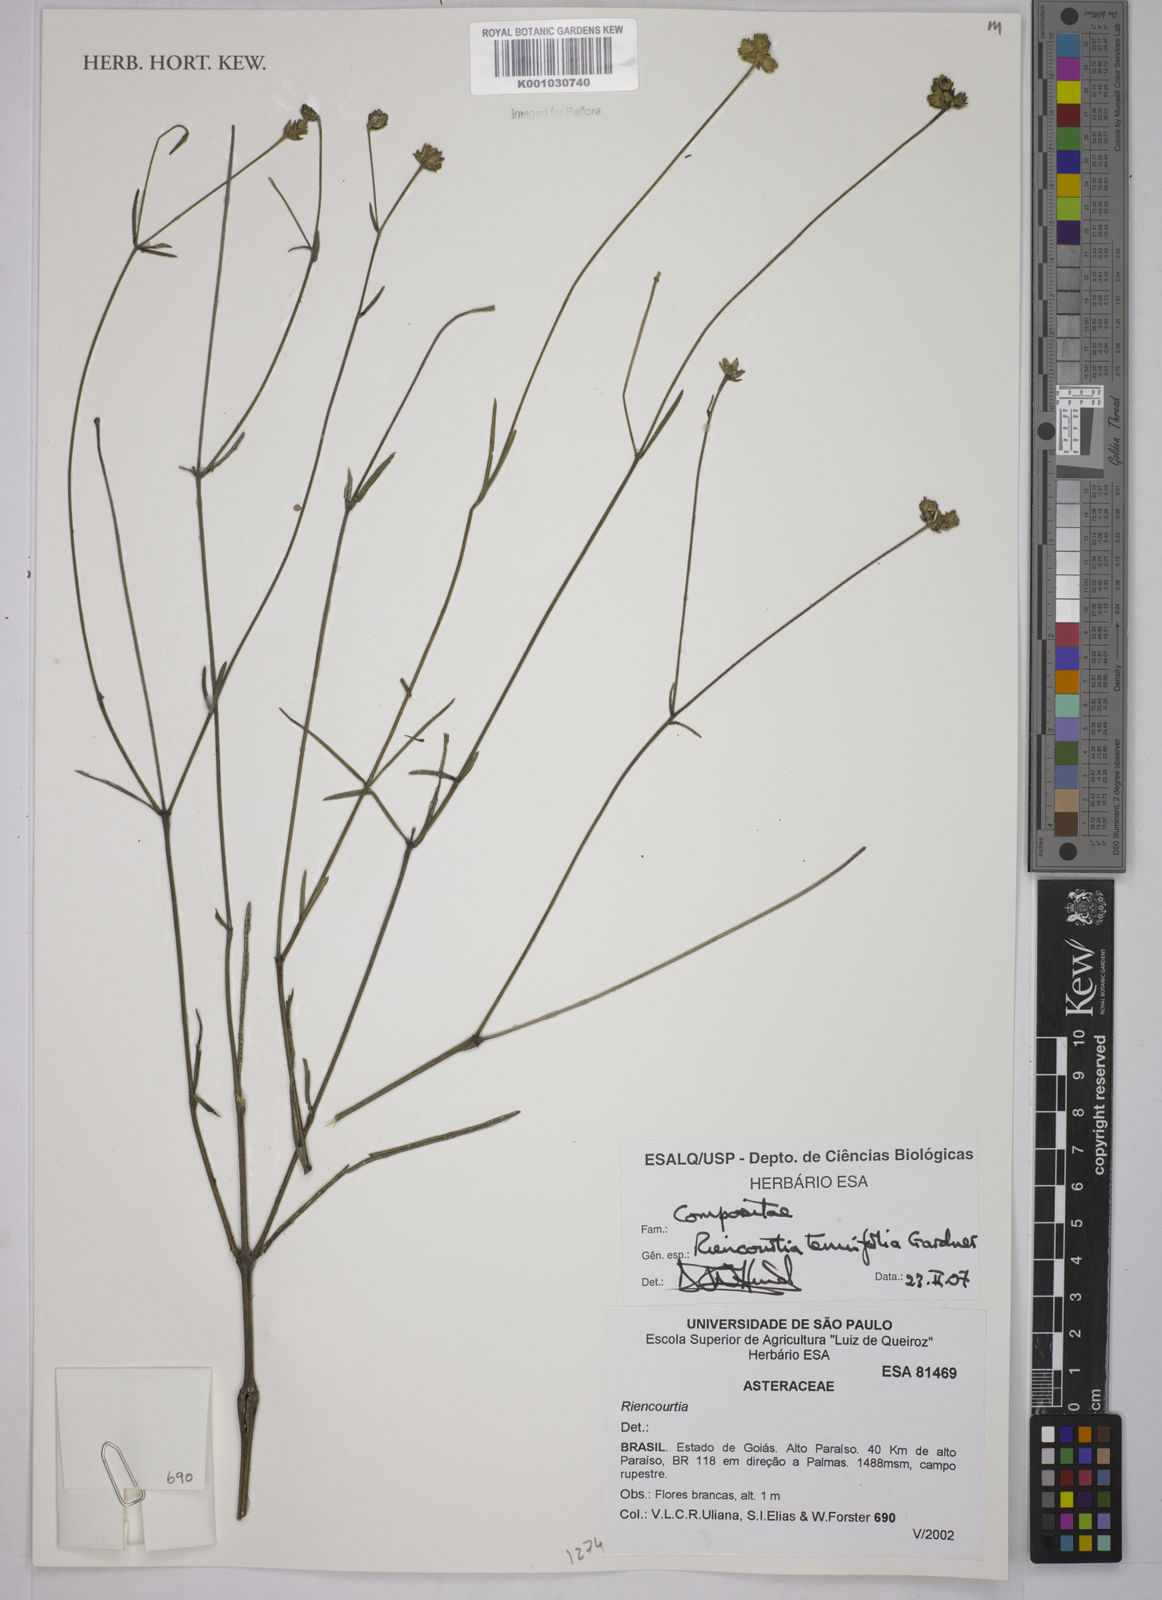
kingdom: Plantae
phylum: Tracheophyta
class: Magnoliopsida
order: Aquifoliales
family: Aquifoliaceae
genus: Ilex
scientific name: Ilex brevicuspis
